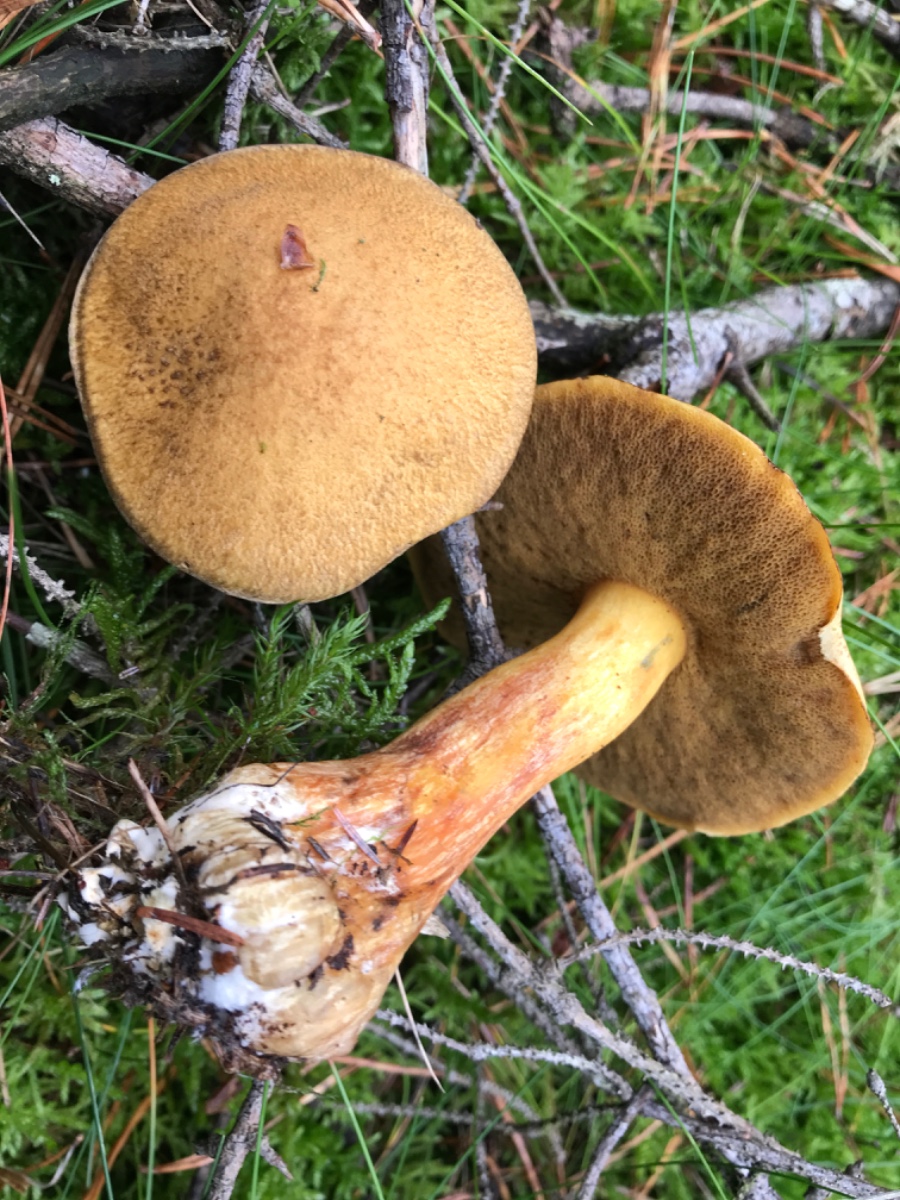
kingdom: Fungi
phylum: Basidiomycota
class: Agaricomycetes
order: Boletales
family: Suillaceae
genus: Suillus
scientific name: Suillus variegatus
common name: broget slimrørhat
